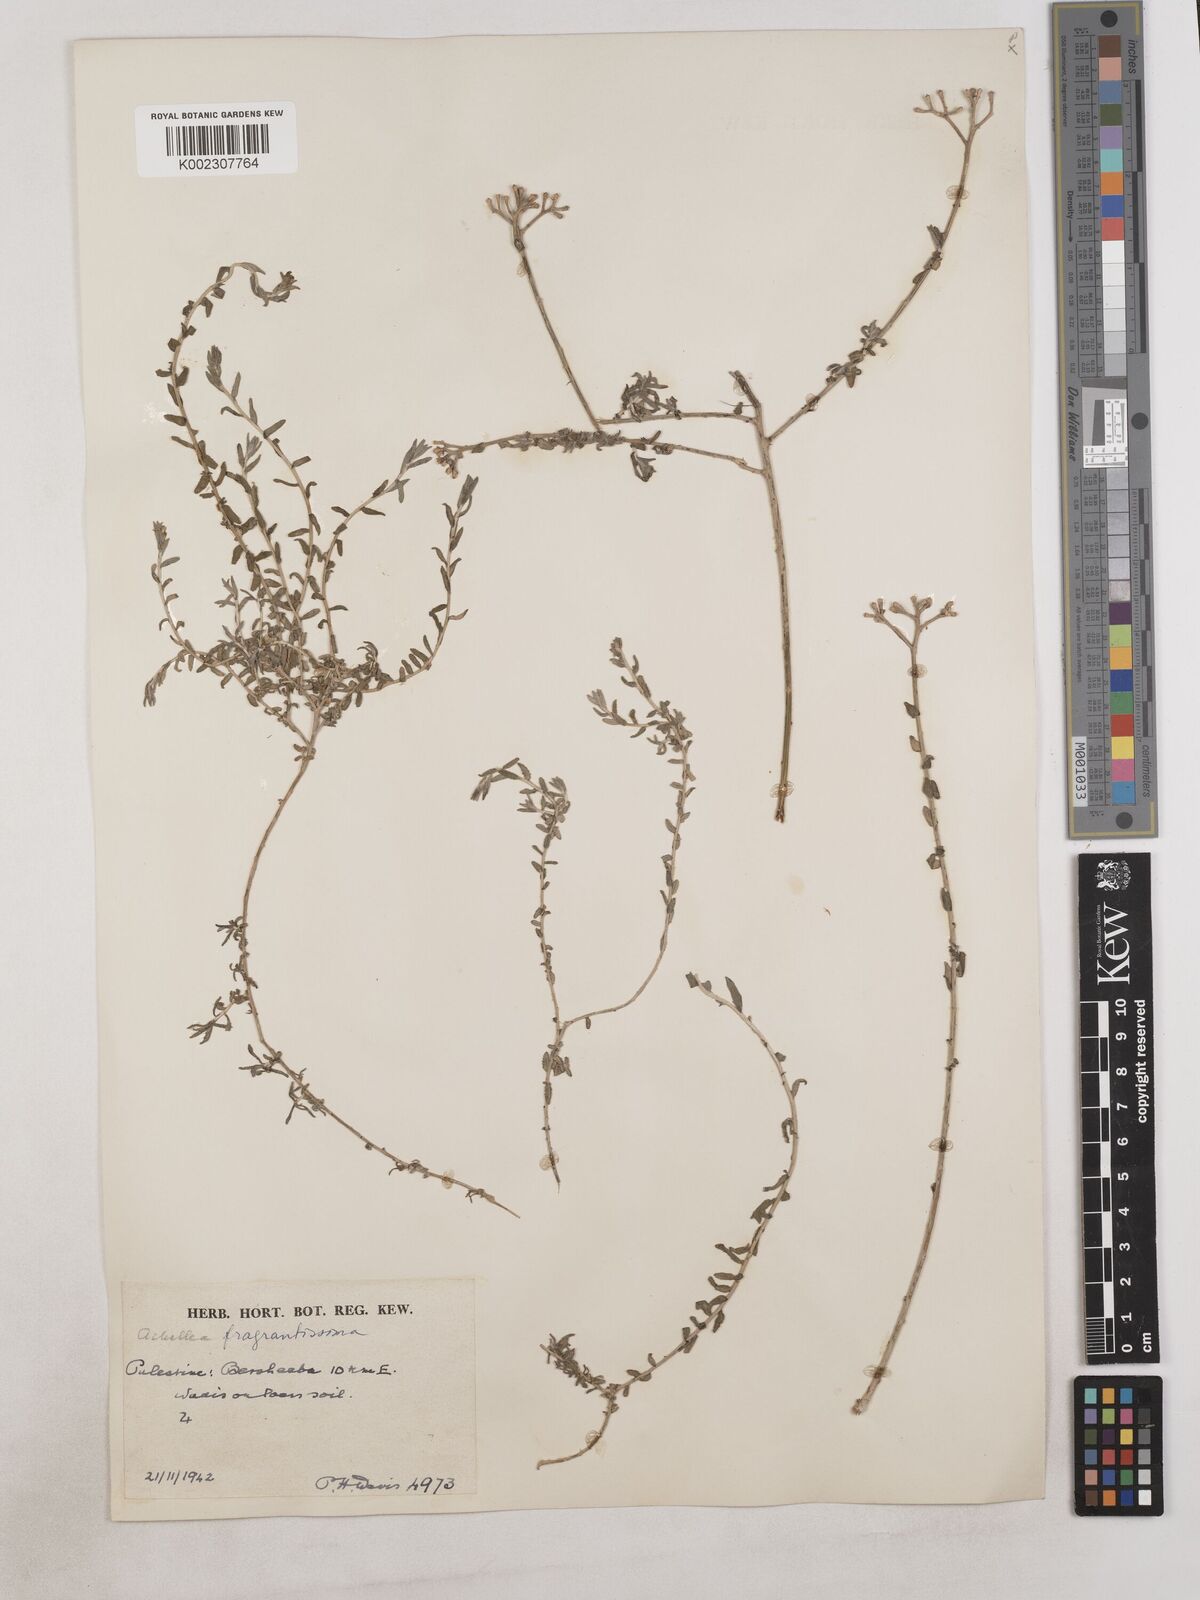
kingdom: Plantae
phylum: Tracheophyta
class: Magnoliopsida
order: Asterales
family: Asteraceae
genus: Achillea
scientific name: Achillea fragrantissima
